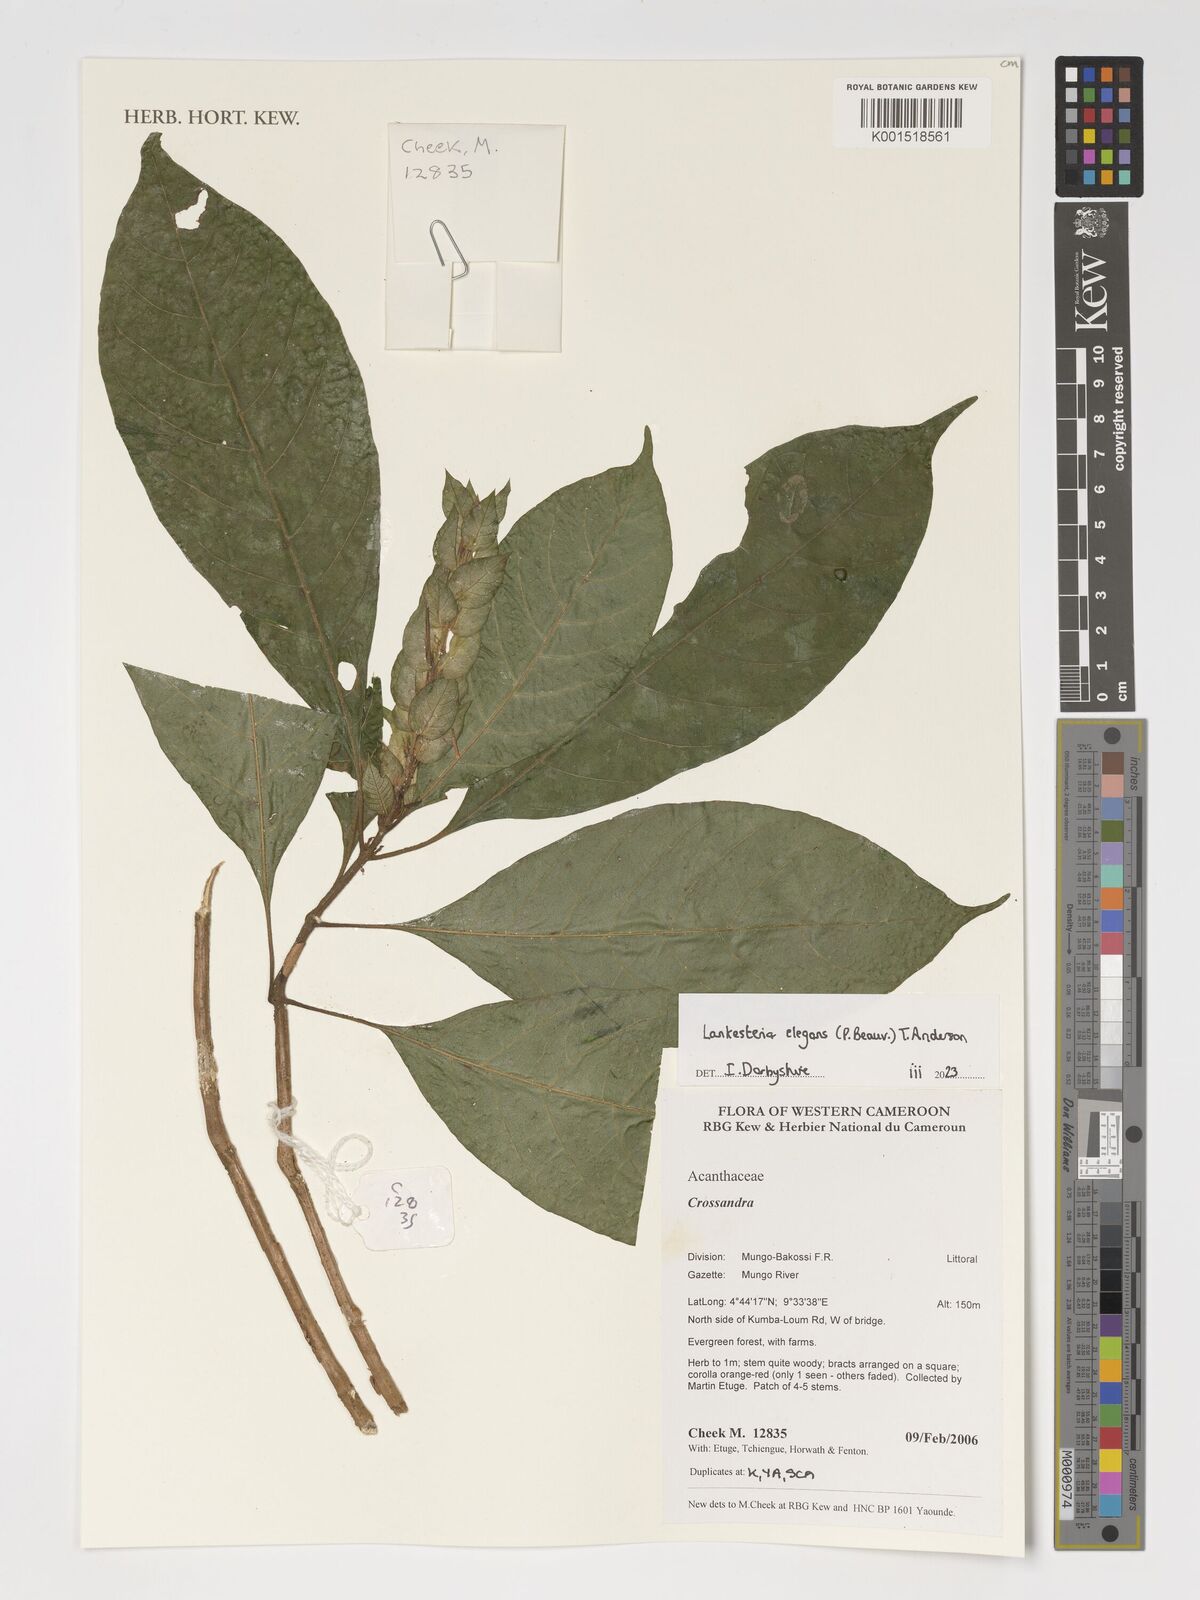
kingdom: Plantae
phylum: Tracheophyta
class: Magnoliopsida
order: Lamiales
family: Acanthaceae
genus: Lankesteria
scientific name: Lankesteria elegans
